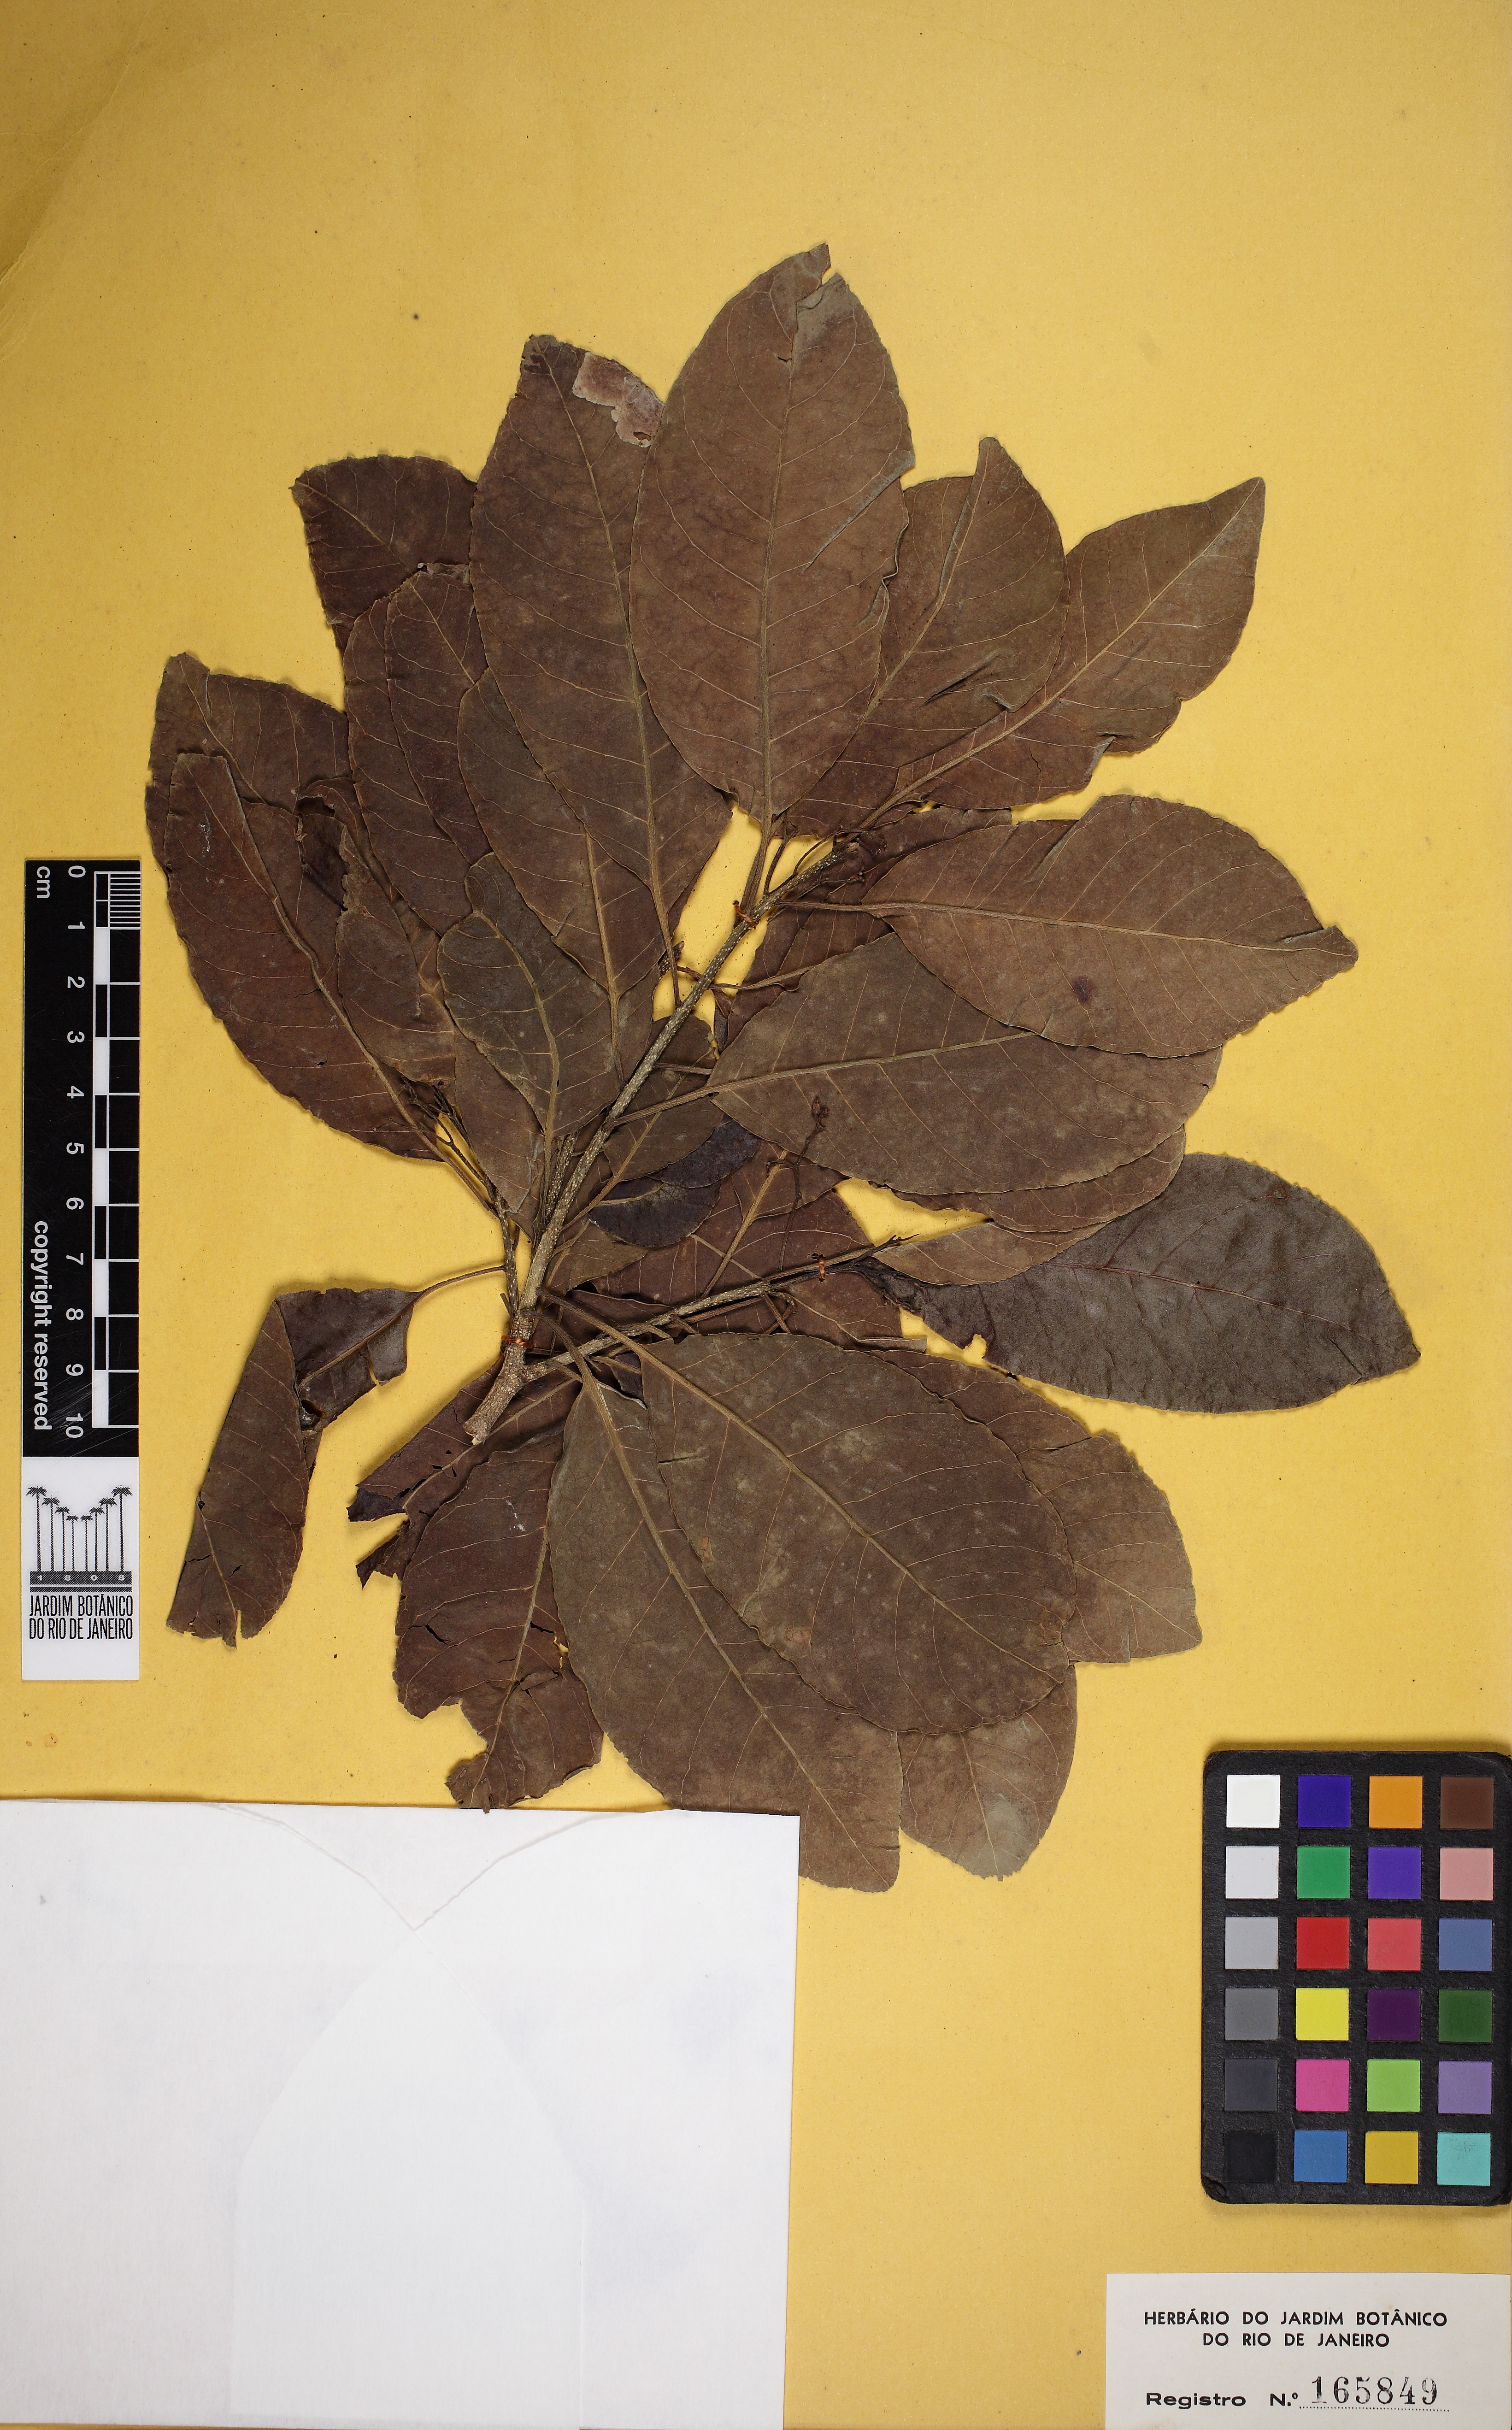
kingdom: Plantae
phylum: Tracheophyta
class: Magnoliopsida
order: Gentianales
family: Apocynaceae
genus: Aspidosperma
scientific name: Aspidosperma pyricollum
